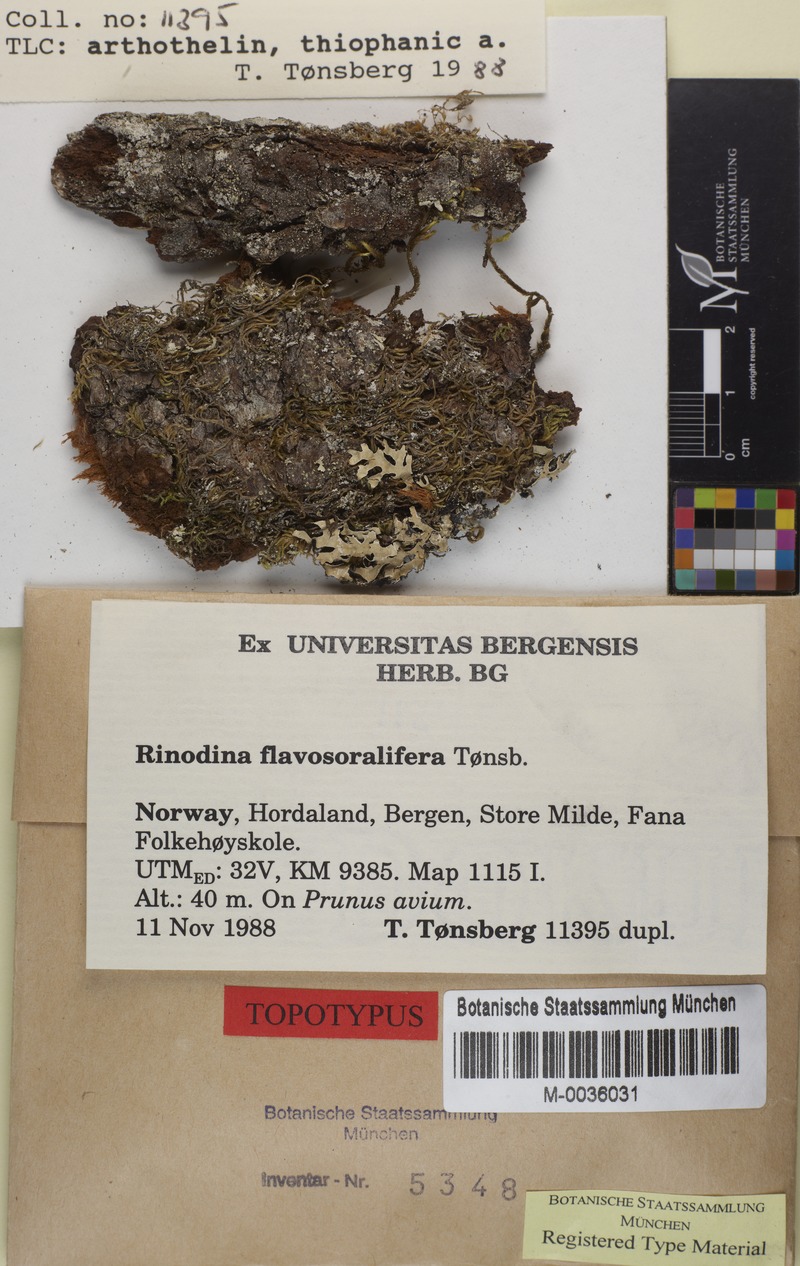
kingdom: Fungi
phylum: Ascomycota
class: Lecanoromycetes
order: Caliciales
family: Physciaceae
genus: Rinodina
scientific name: Rinodina flavosoralifera
